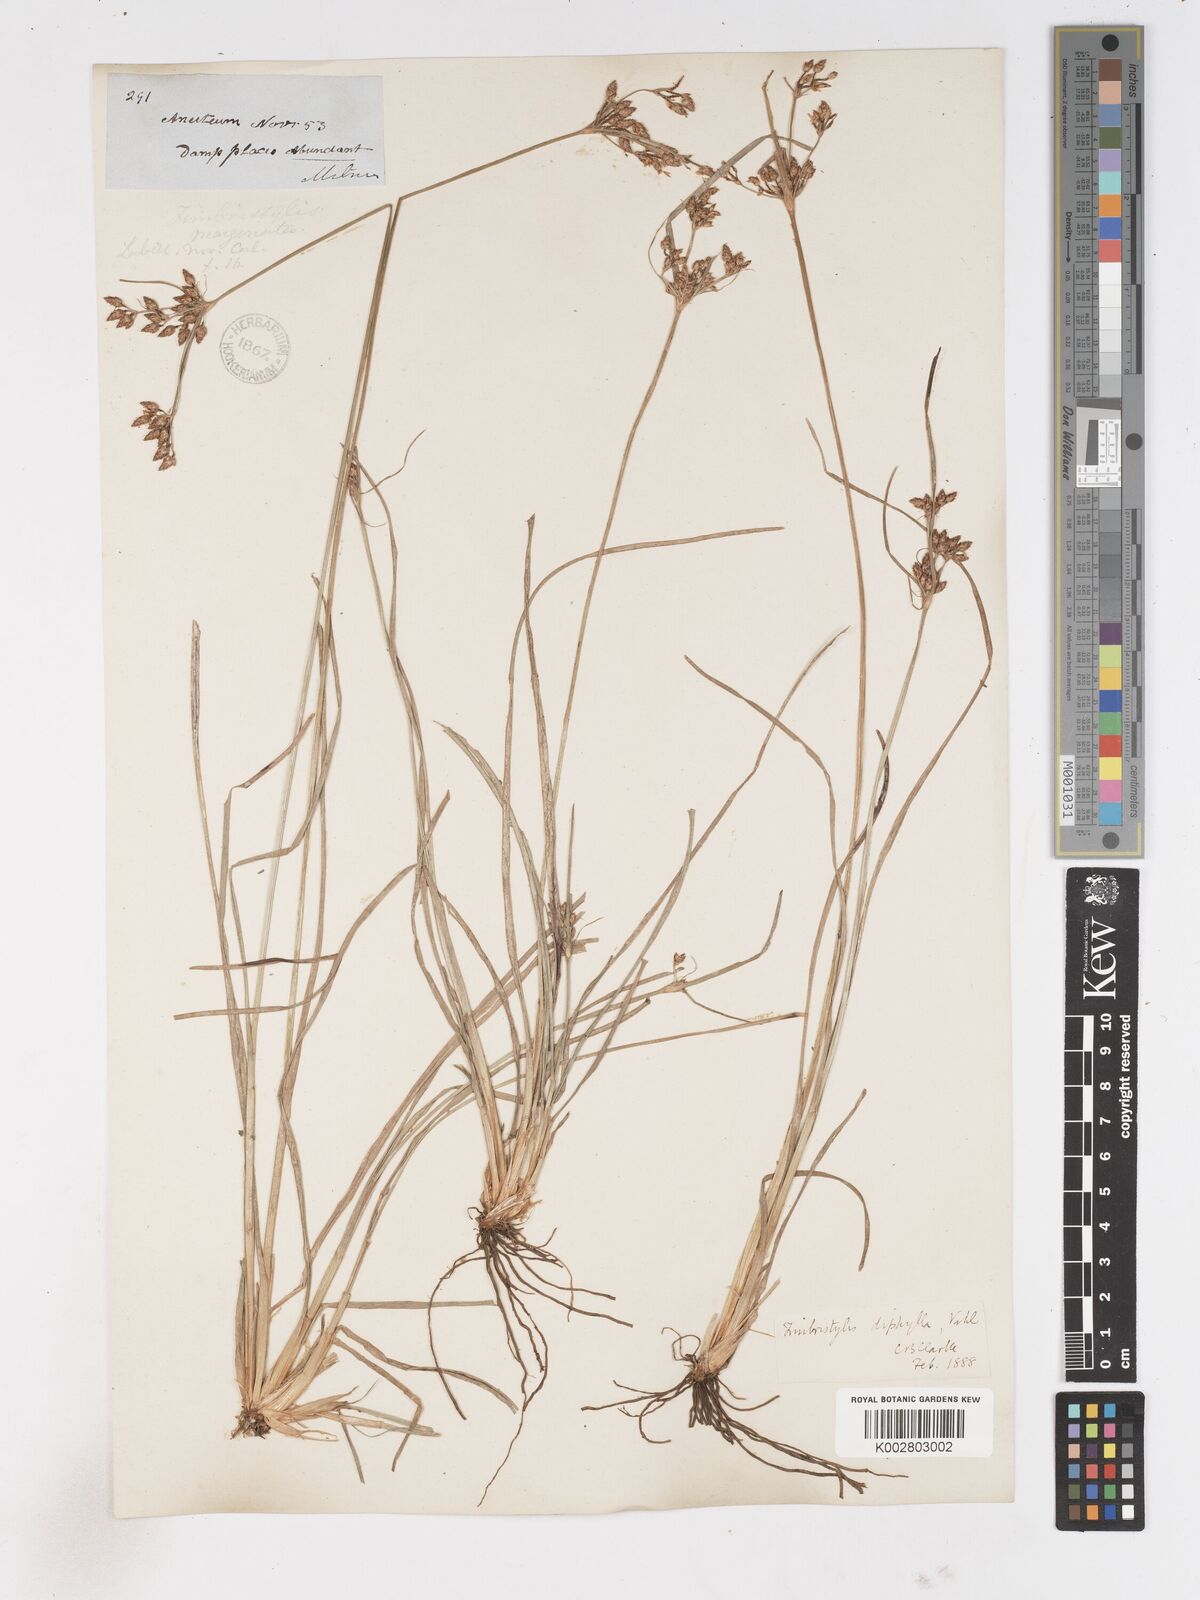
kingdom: Plantae
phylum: Tracheophyta
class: Liliopsida
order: Poales
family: Cyperaceae
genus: Fimbristylis
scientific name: Fimbristylis dichotoma
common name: Forked fimbry
